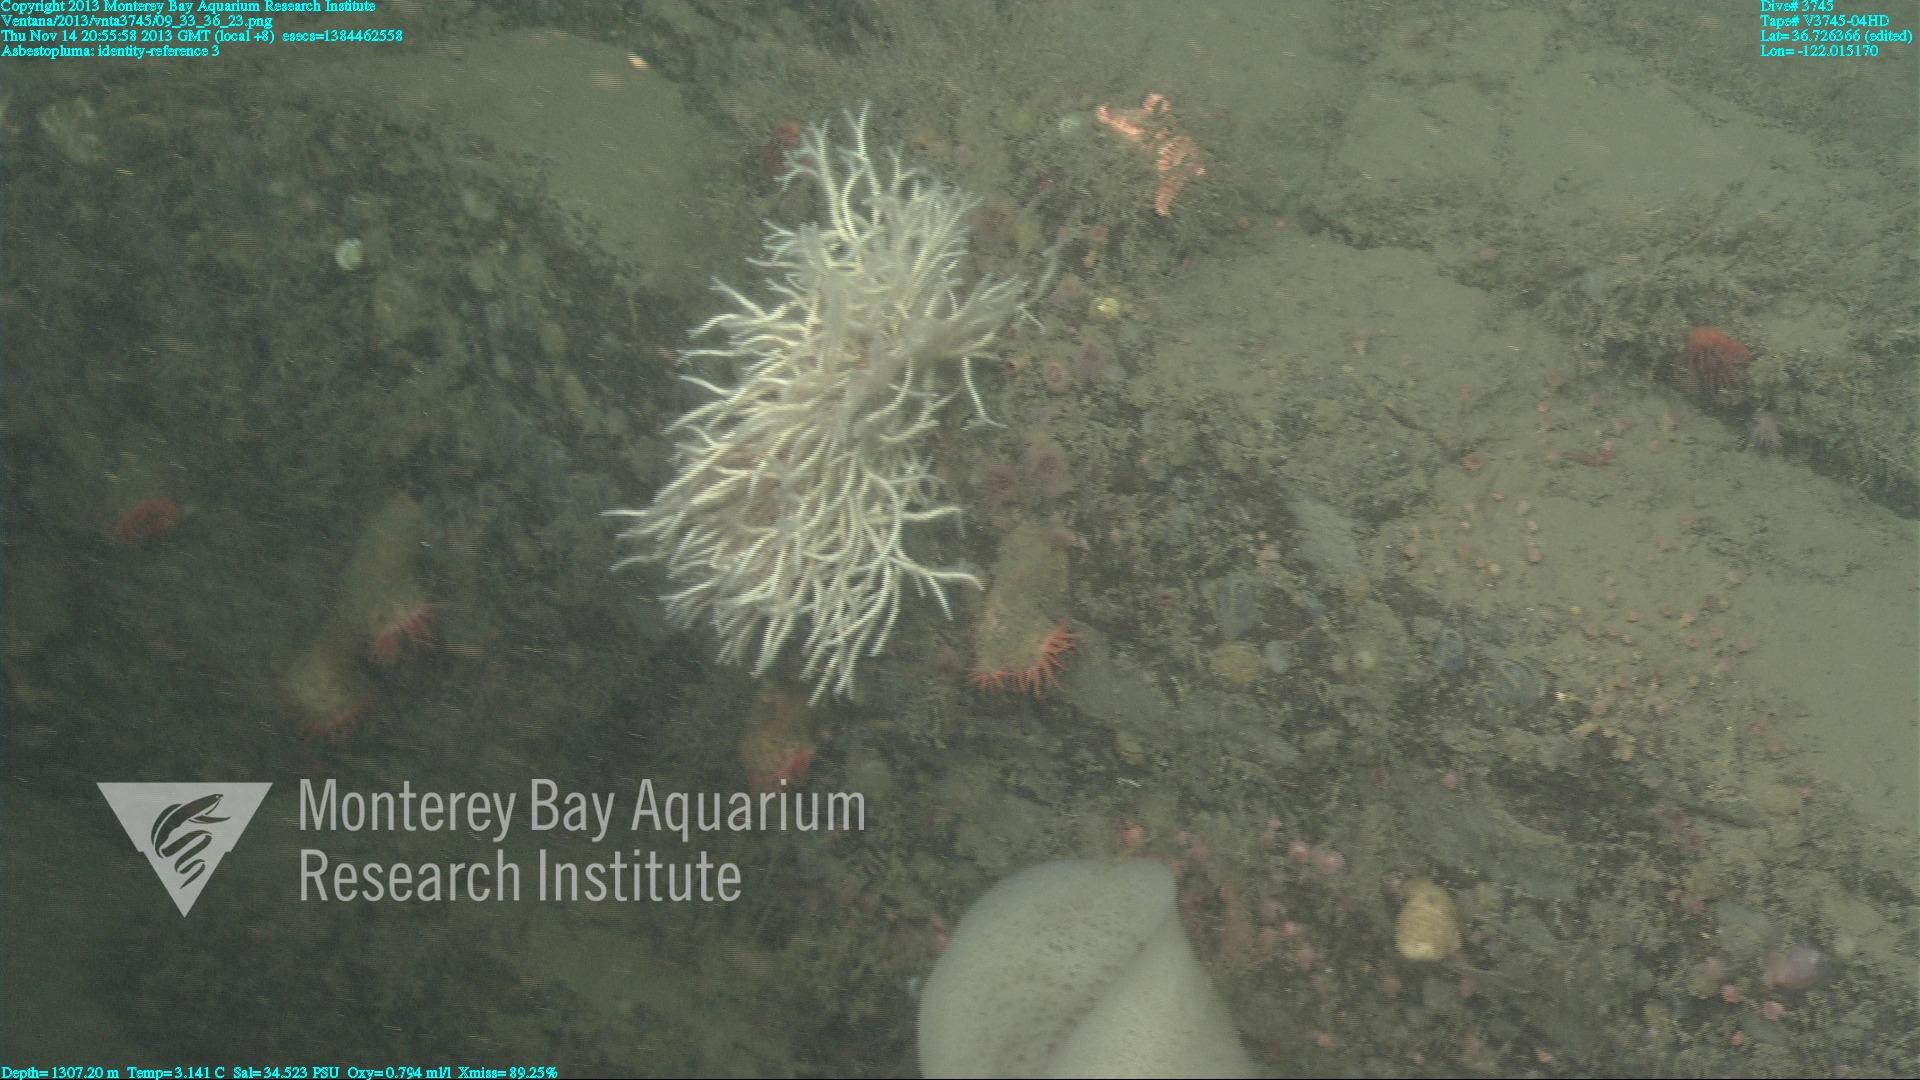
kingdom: Animalia
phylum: Porifera
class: Demospongiae
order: Poecilosclerida
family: Cladorhizidae
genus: Asbestopluma
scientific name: Asbestopluma
